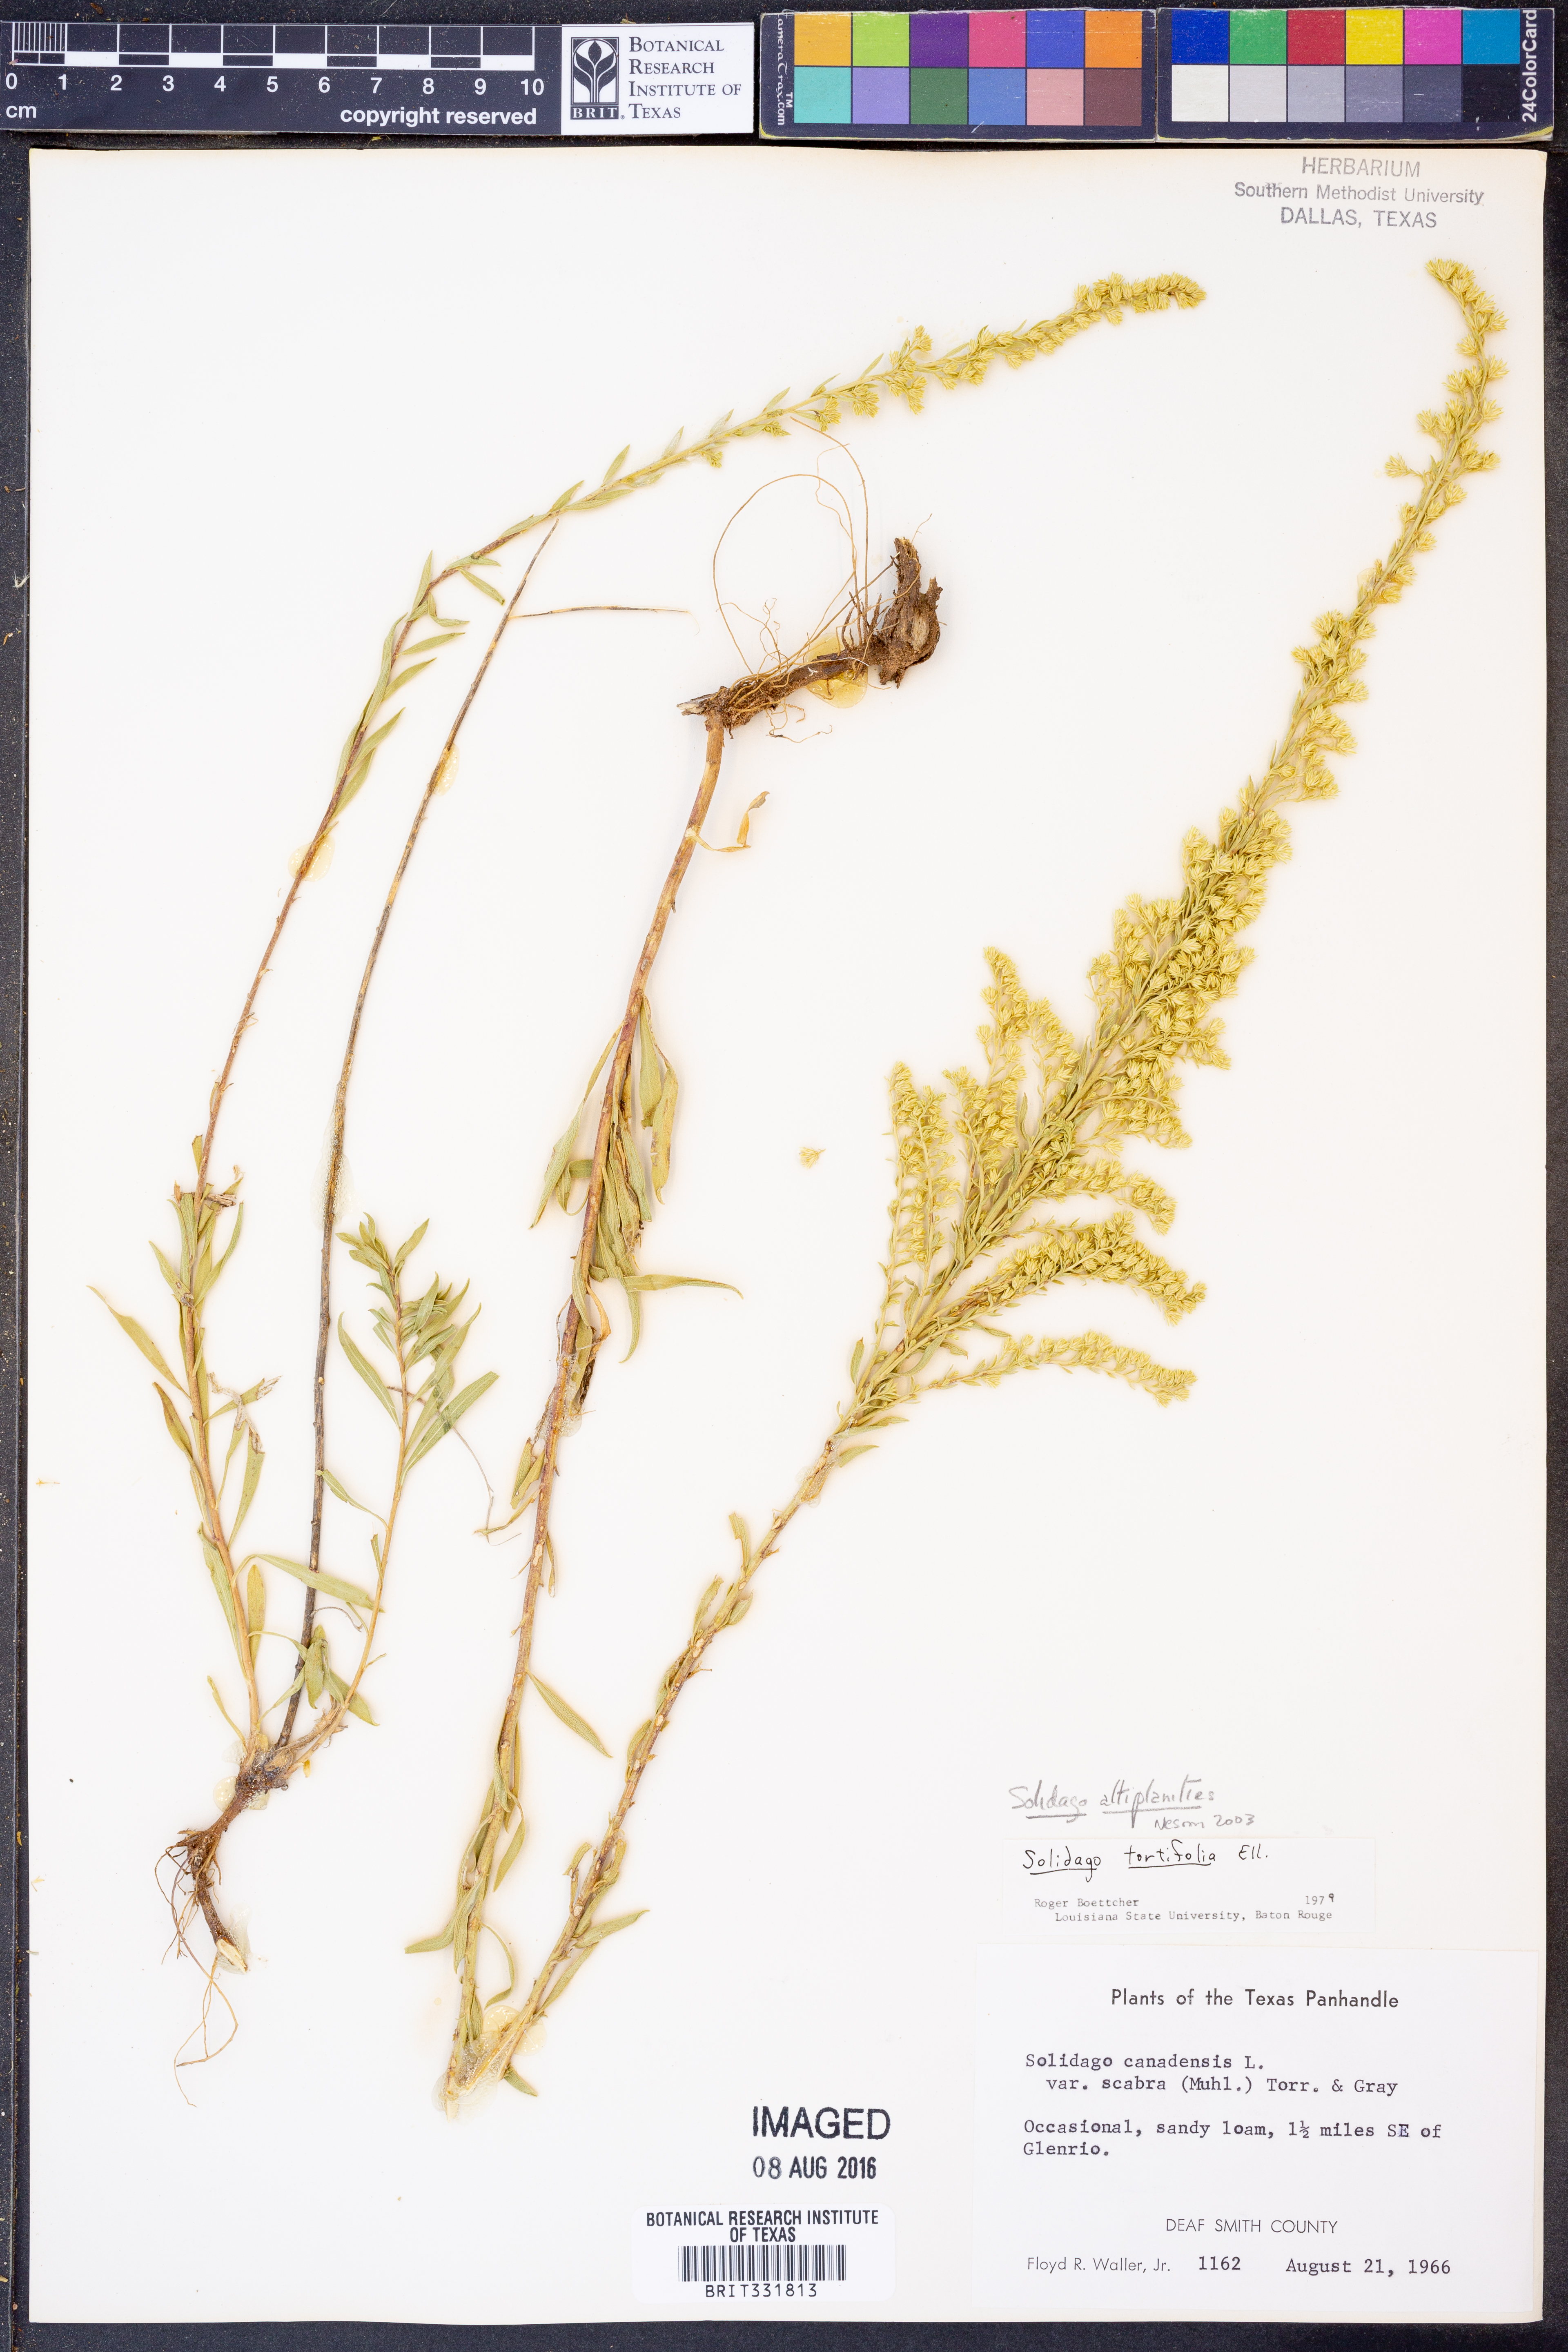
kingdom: Plantae
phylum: Tracheophyta
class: Magnoliopsida
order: Asterales
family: Asteraceae
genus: Solidago
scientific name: Solidago altiplanities
